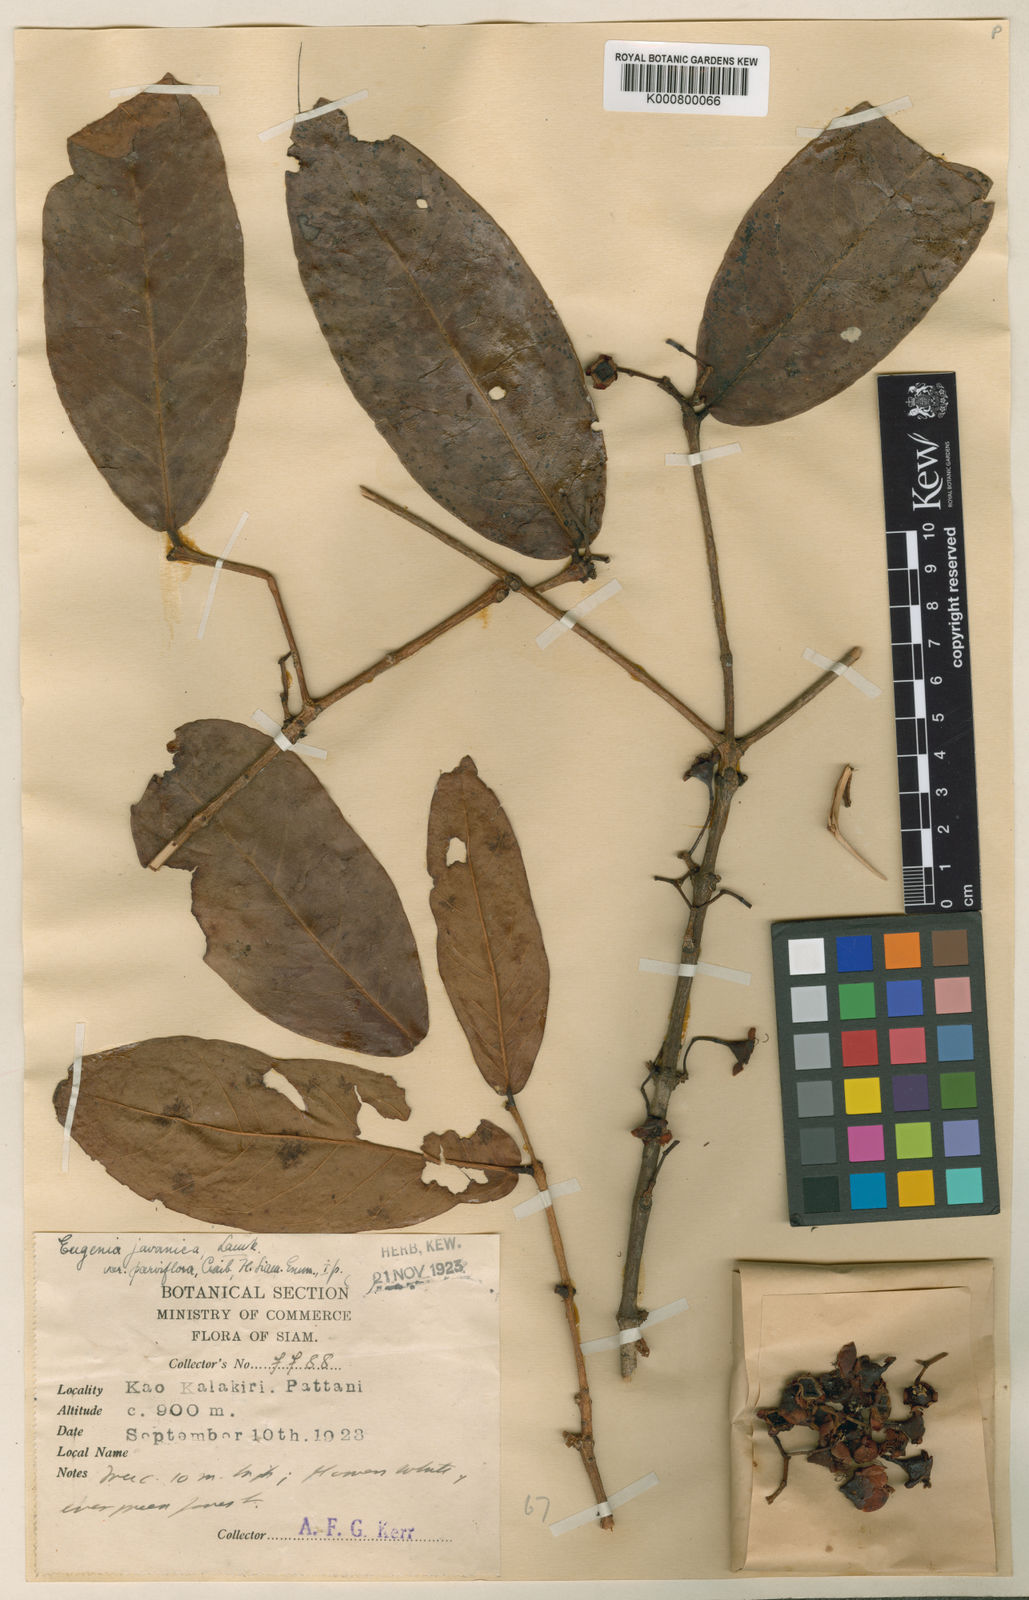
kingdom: Plantae
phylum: Tracheophyta
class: Magnoliopsida
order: Myrtales
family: Myrtaceae
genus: Syzygium
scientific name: Syzygium samarangense
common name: Semarang rose-apple
